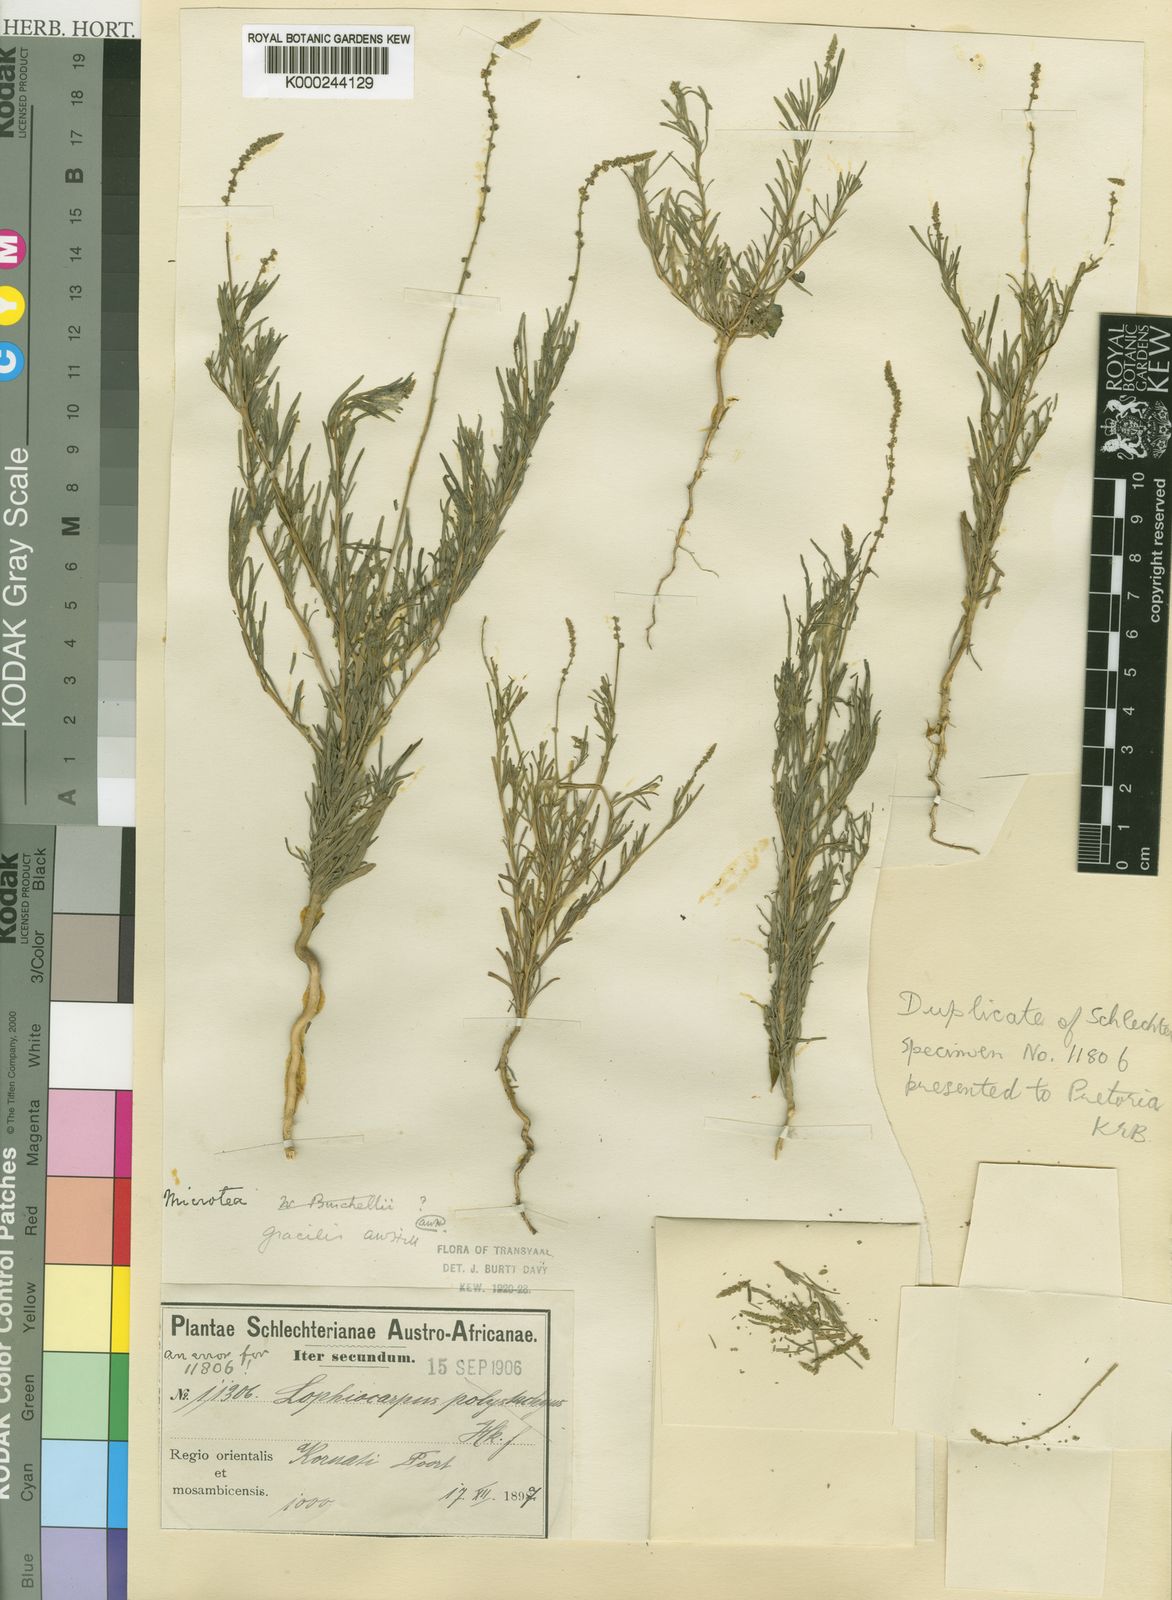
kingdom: Plantae
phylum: Tracheophyta
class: Magnoliopsida
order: Caryophyllales
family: Lophiocarpaceae
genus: Lophiocarpus
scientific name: Lophiocarpus polystachyus
